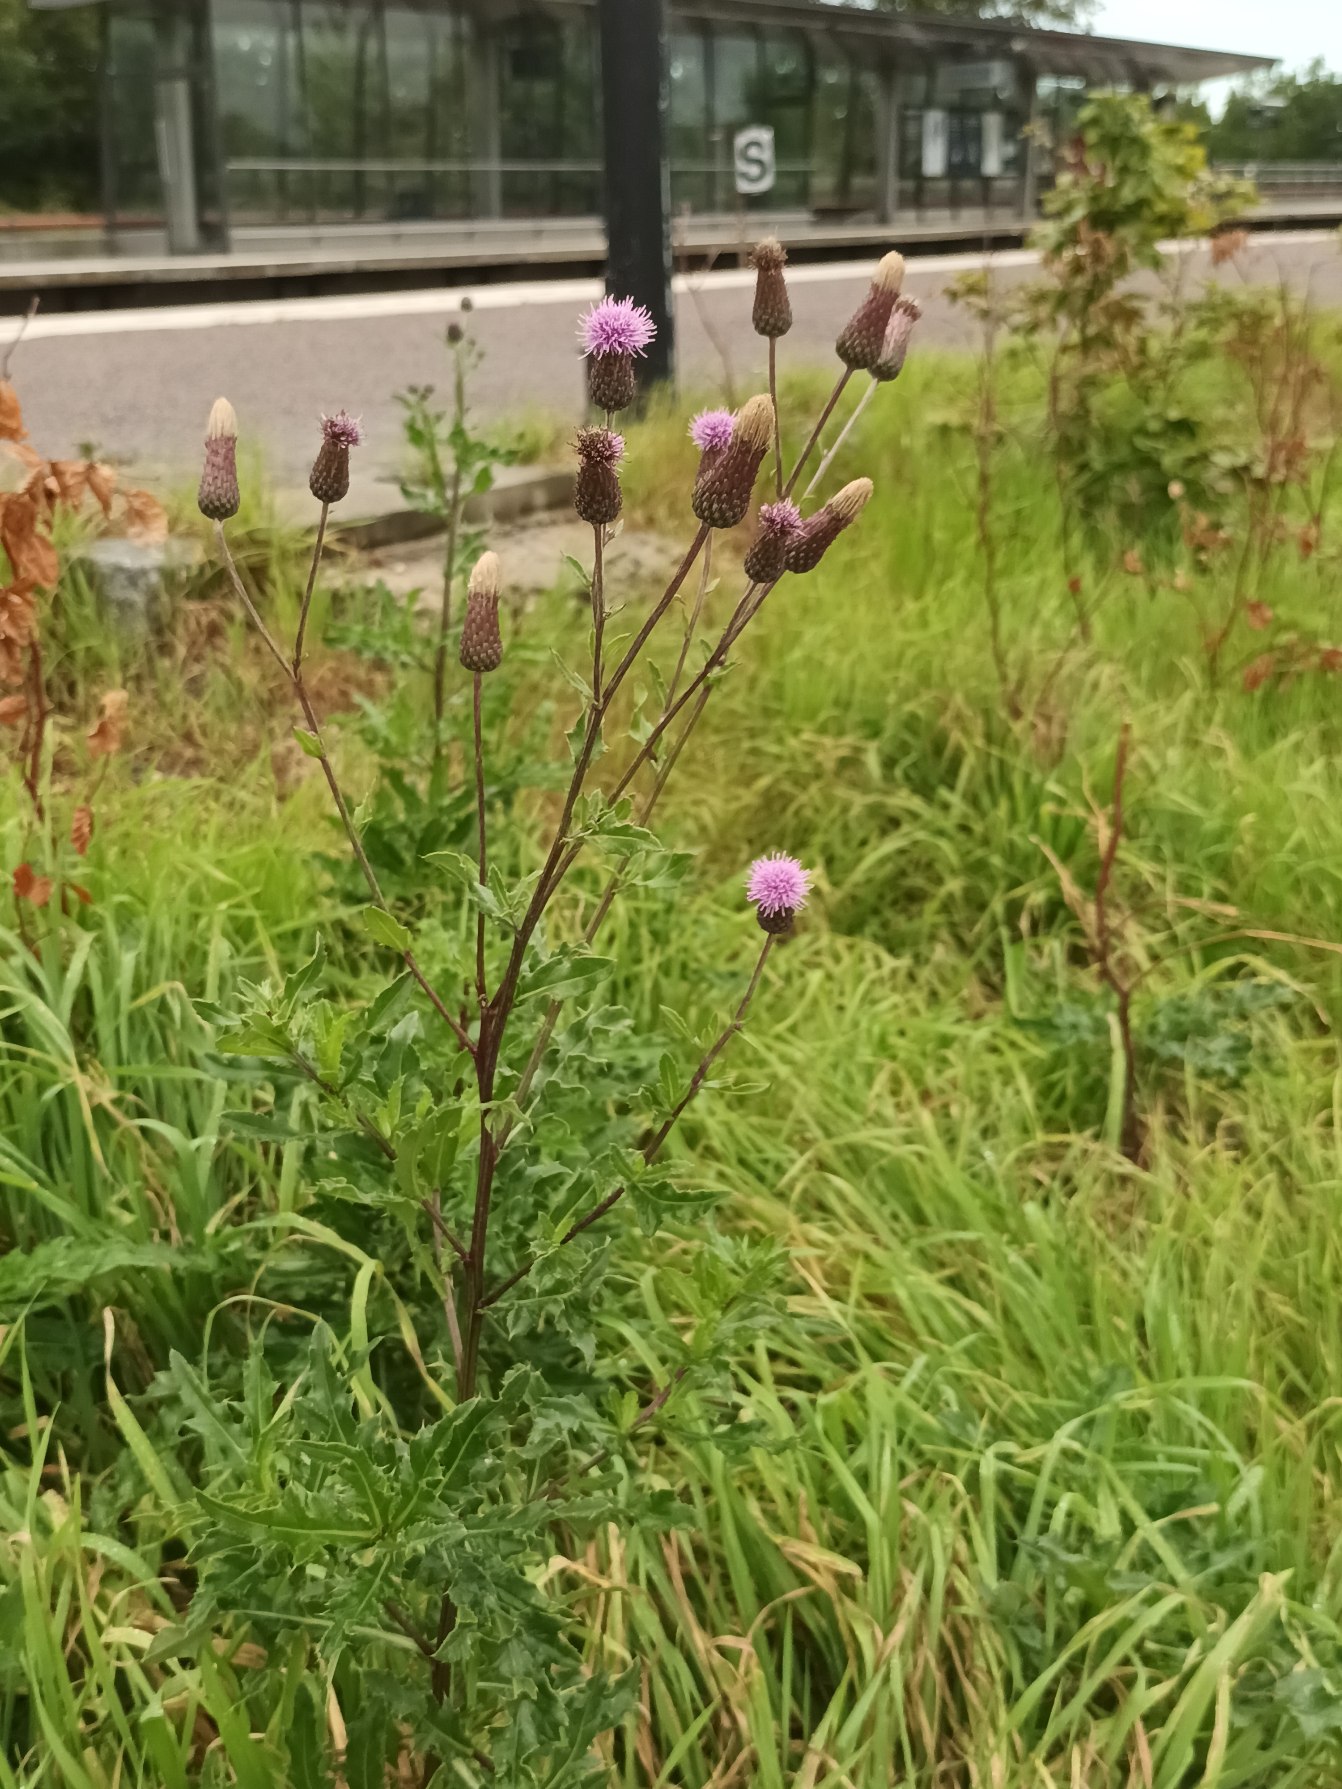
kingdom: Plantae
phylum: Tracheophyta
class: Magnoliopsida
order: Asterales
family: Asteraceae
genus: Cirsium
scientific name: Cirsium arvense
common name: Ager-tidsel
